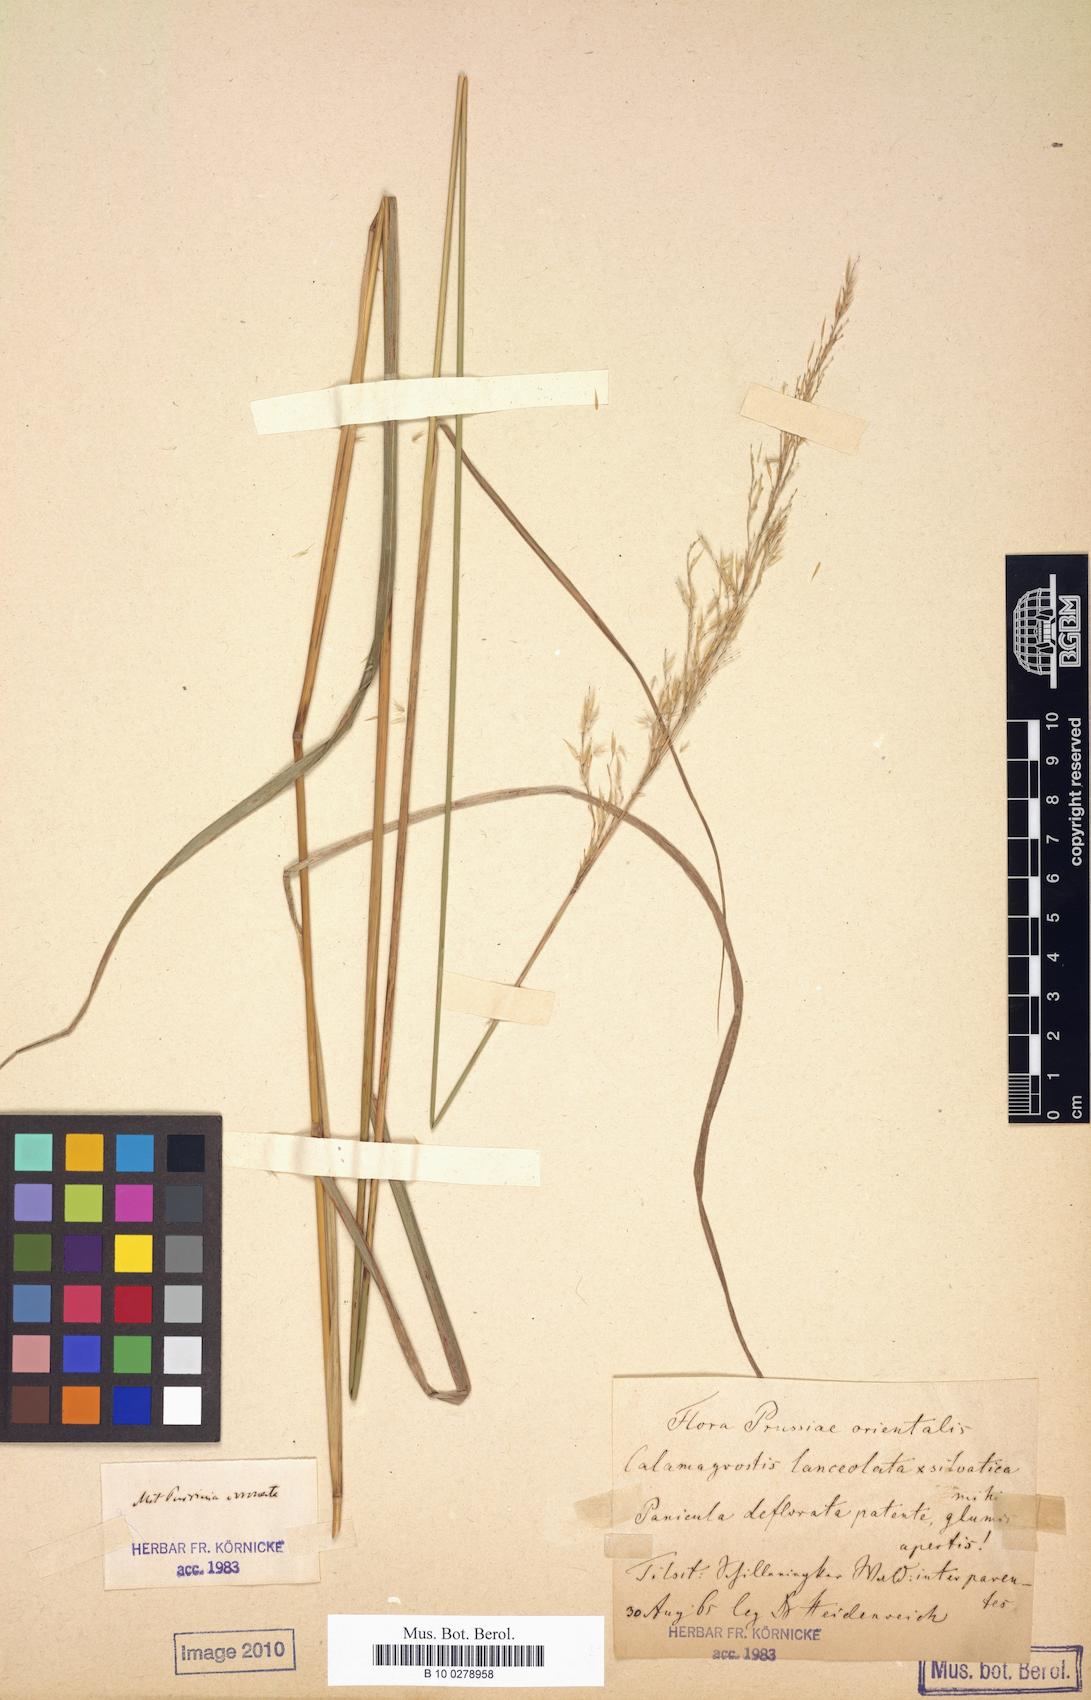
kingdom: Plantae
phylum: Tracheophyta
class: Liliopsida
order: Poales
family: Poaceae
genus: Calamagrostis
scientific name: Calamagrostis villosa
